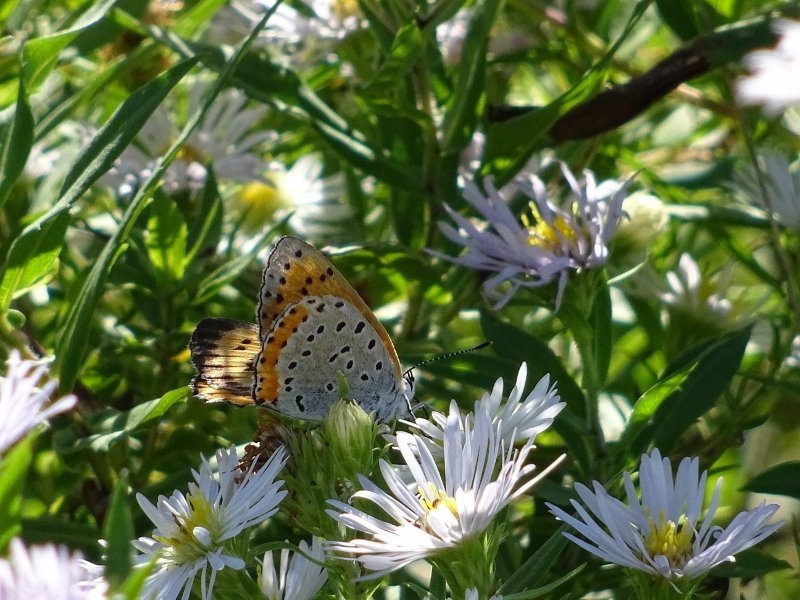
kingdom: Animalia
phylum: Arthropoda
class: Insecta
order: Lepidoptera
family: Sesiidae
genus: Sesia
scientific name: Sesia Lycaena hyllus
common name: Bronze Copper
